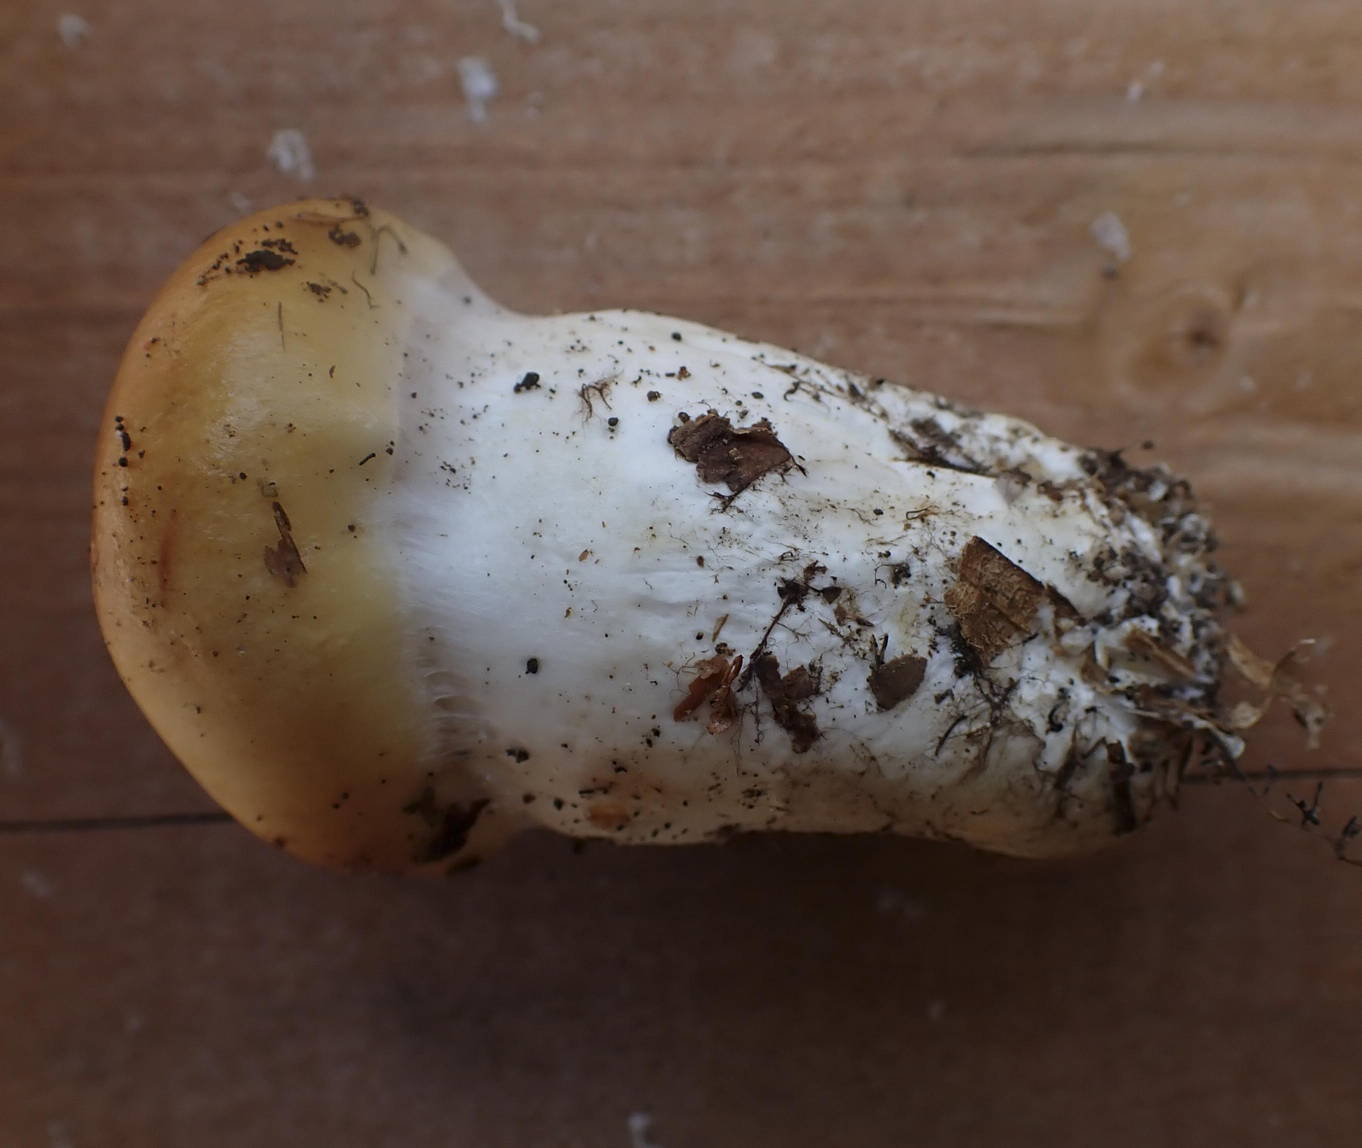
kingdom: Fungi
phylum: Basidiomycota
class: Agaricomycetes
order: Agaricales
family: Cortinariaceae
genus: Thaxterogaster
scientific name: Thaxterogaster emollitus
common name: besk slørhat
